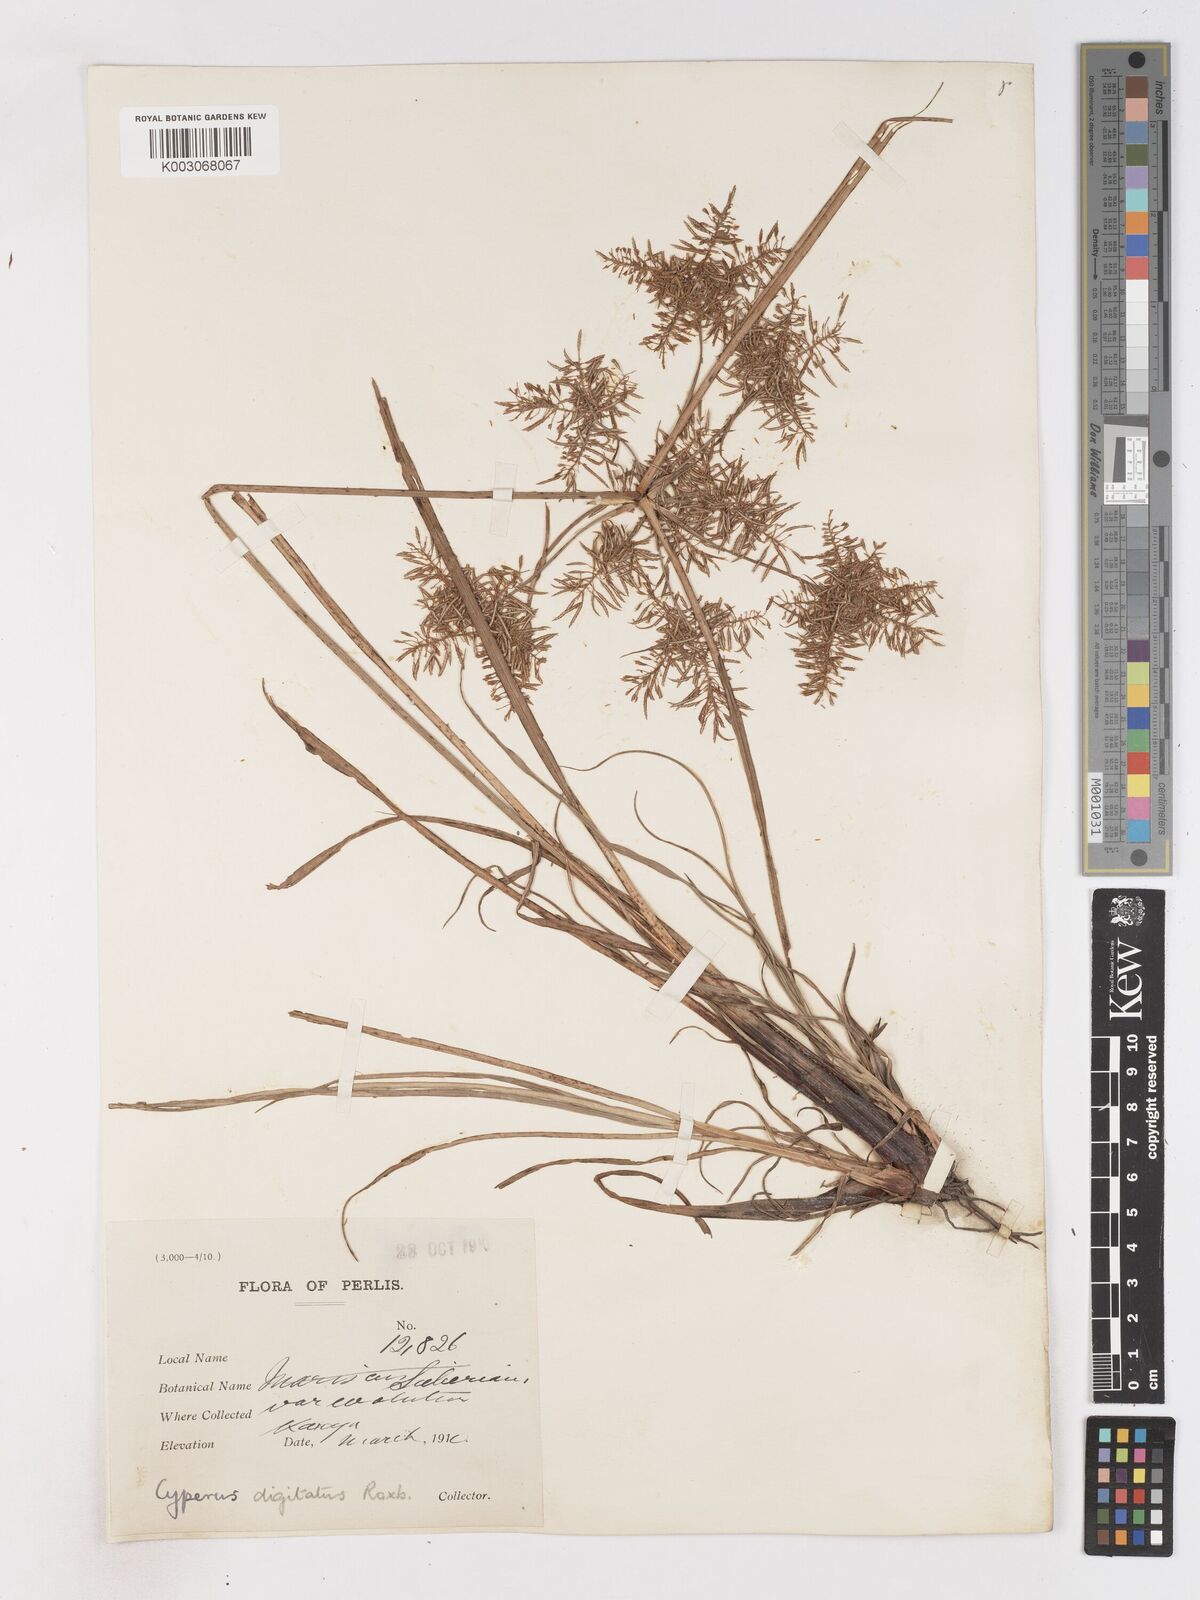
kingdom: Plantae
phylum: Tracheophyta
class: Liliopsida
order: Poales
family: Cyperaceae
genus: Cyperus
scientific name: Cyperus digitatus
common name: Finger flatsedge
